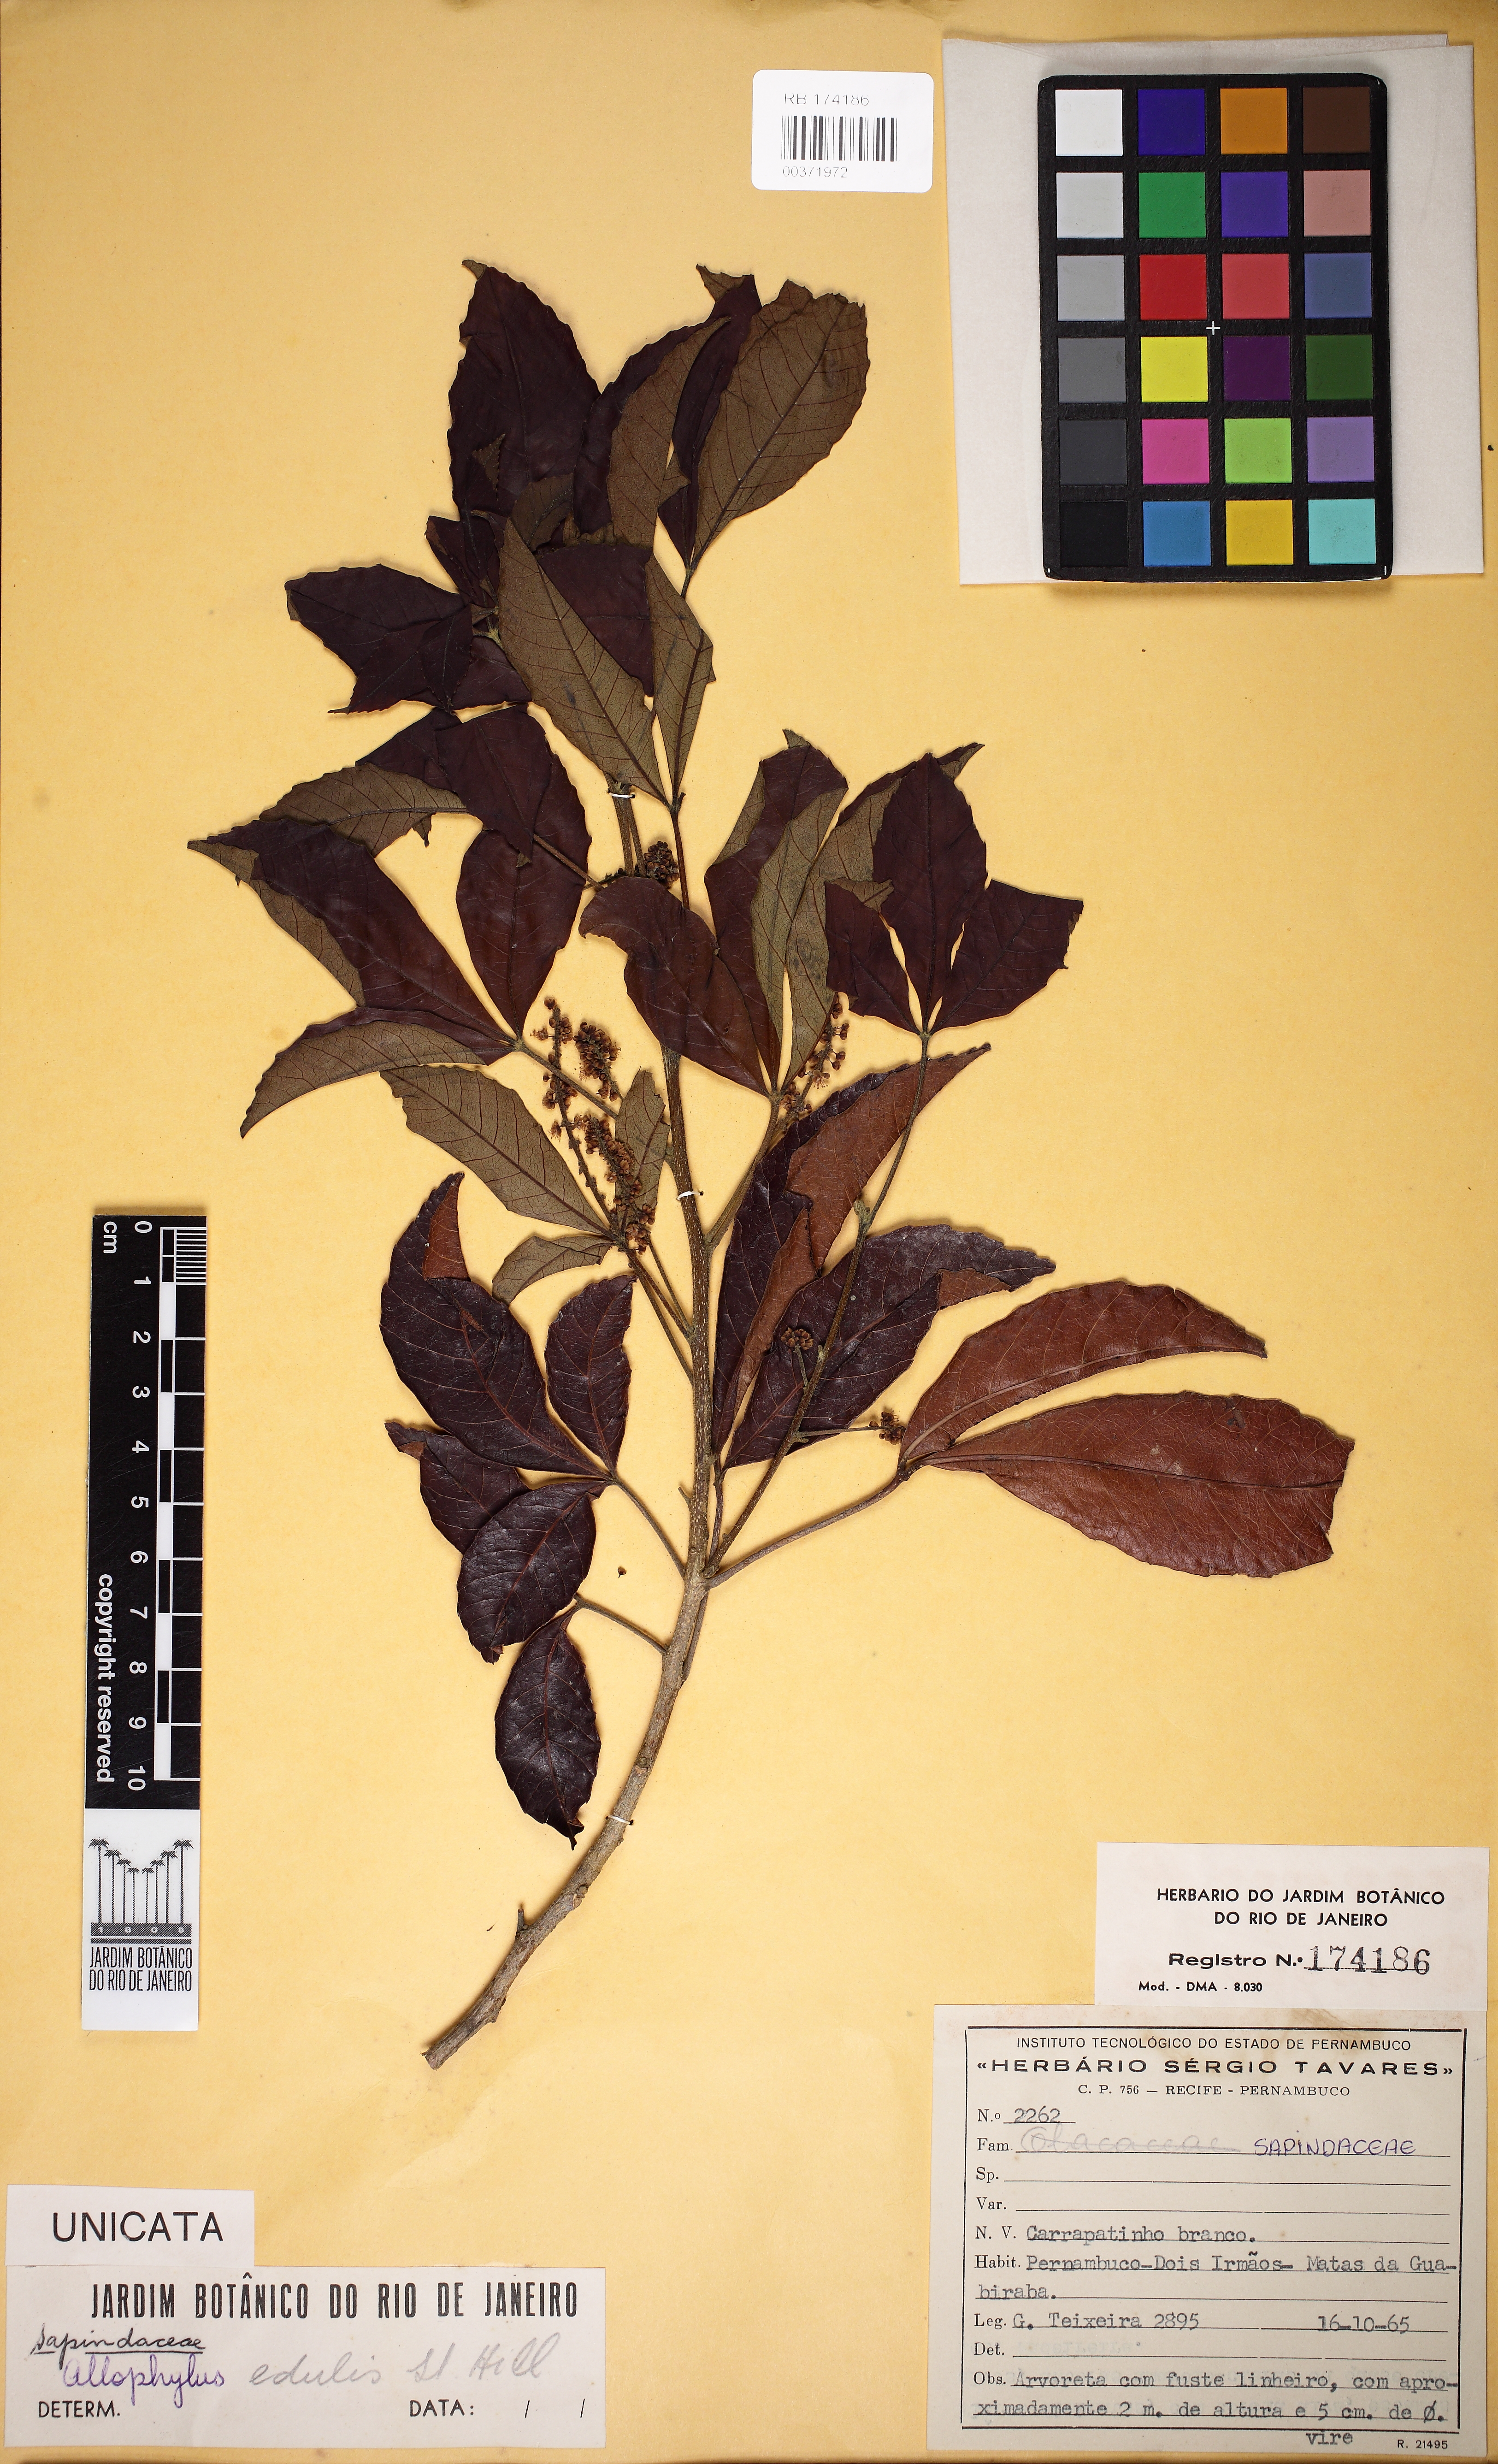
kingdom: Plantae
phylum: Tracheophyta
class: Magnoliopsida
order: Sapindales
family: Sapindaceae
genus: Allophylus
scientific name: Allophylus puberulus
